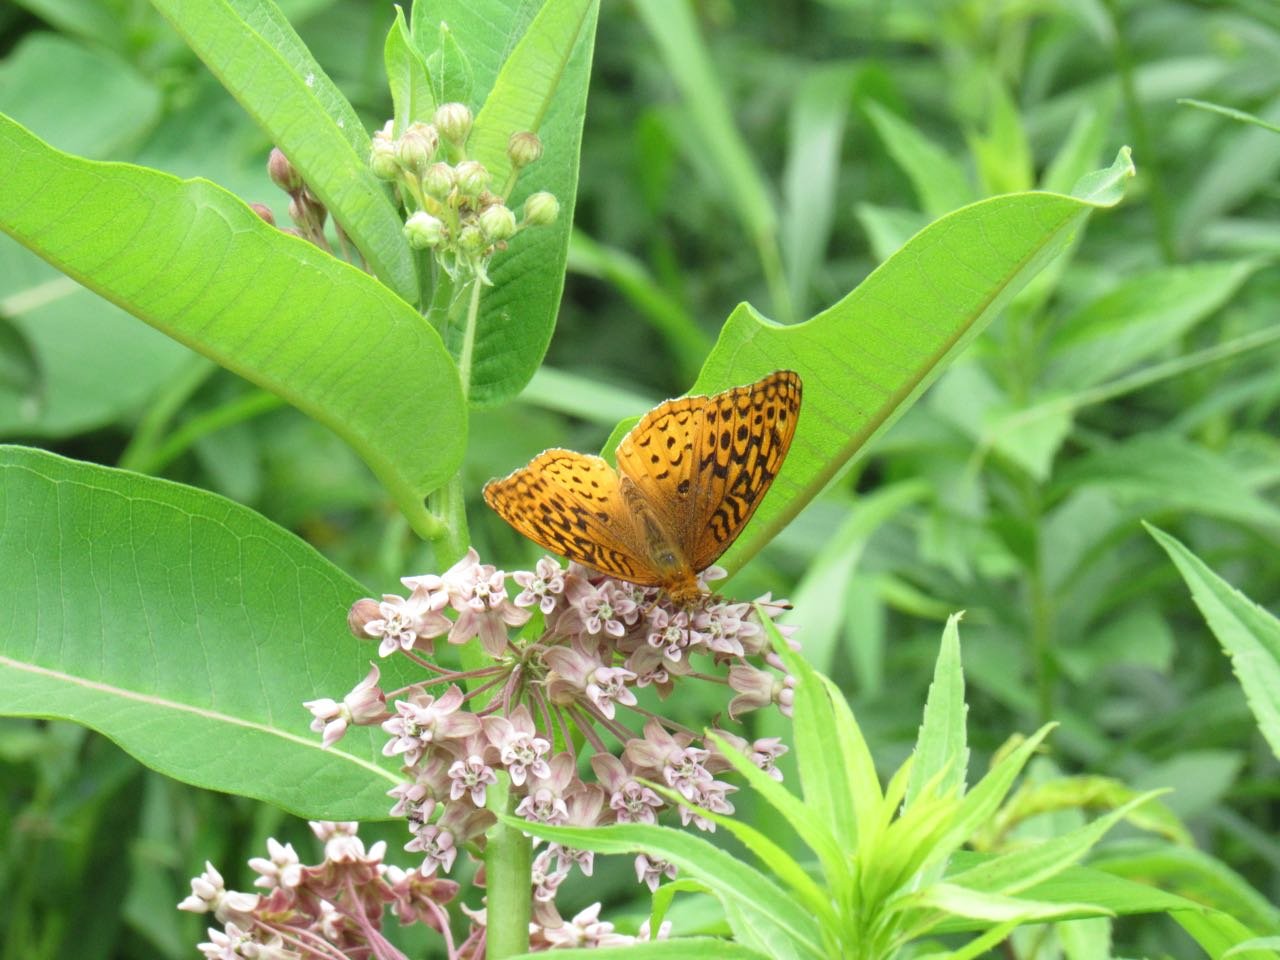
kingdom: Animalia
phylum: Arthropoda
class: Insecta
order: Lepidoptera
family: Nymphalidae
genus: Speyeria
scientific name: Speyeria cybele
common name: Great Spangled Fritillary
